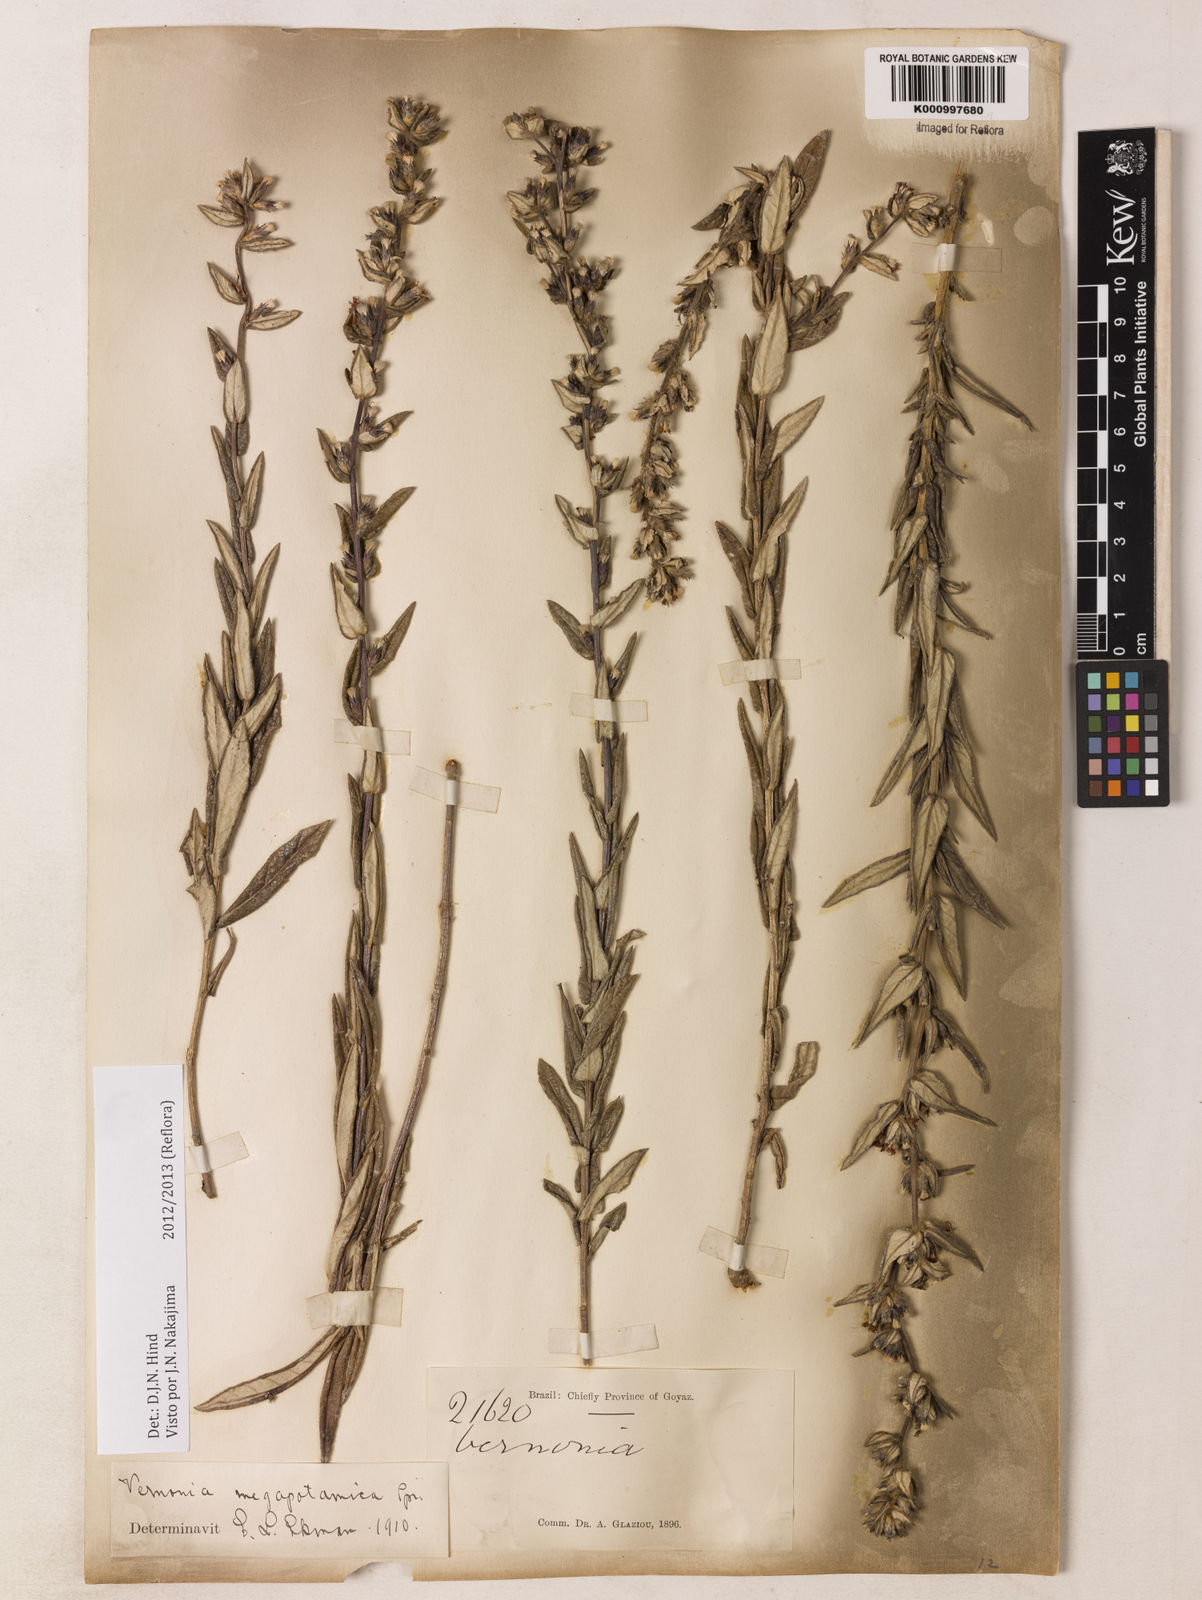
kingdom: Plantae
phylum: Tracheophyta
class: Magnoliopsida
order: Asterales
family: Asteraceae
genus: Stenocephalum
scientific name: Stenocephalum megapotamicum
